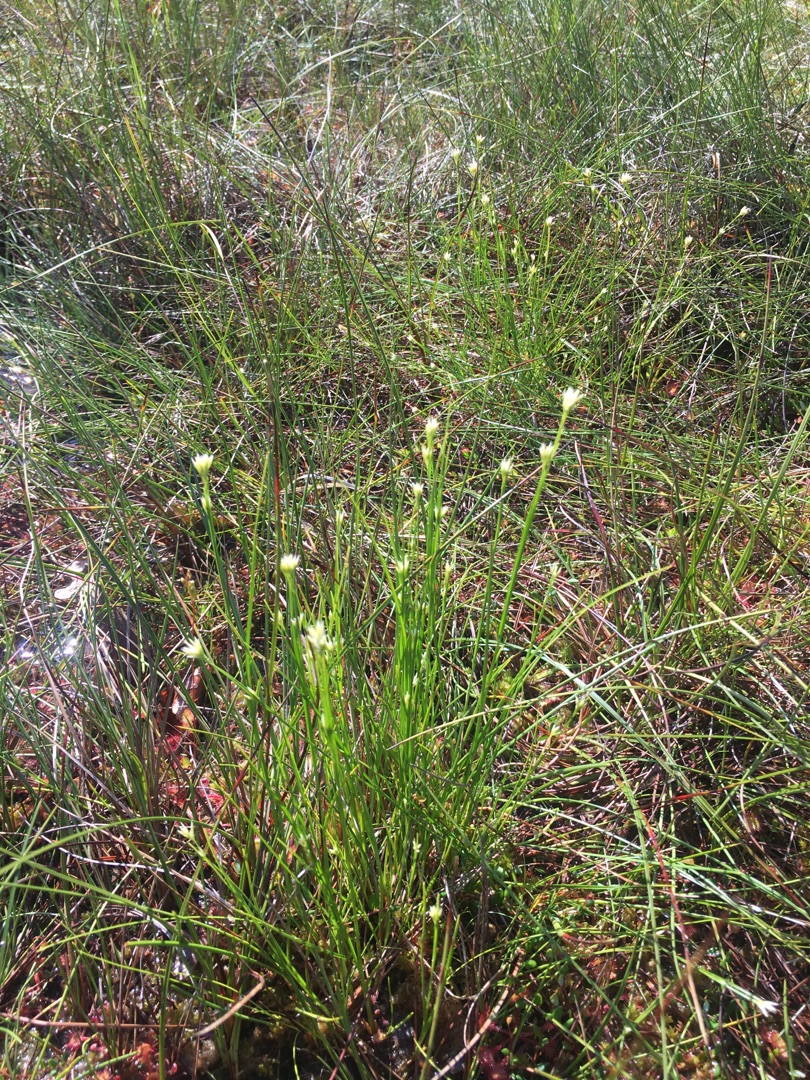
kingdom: Plantae
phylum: Tracheophyta
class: Liliopsida
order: Poales
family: Cyperaceae
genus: Rhynchospora
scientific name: Rhynchospora alba
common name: Hvid næbfrø
